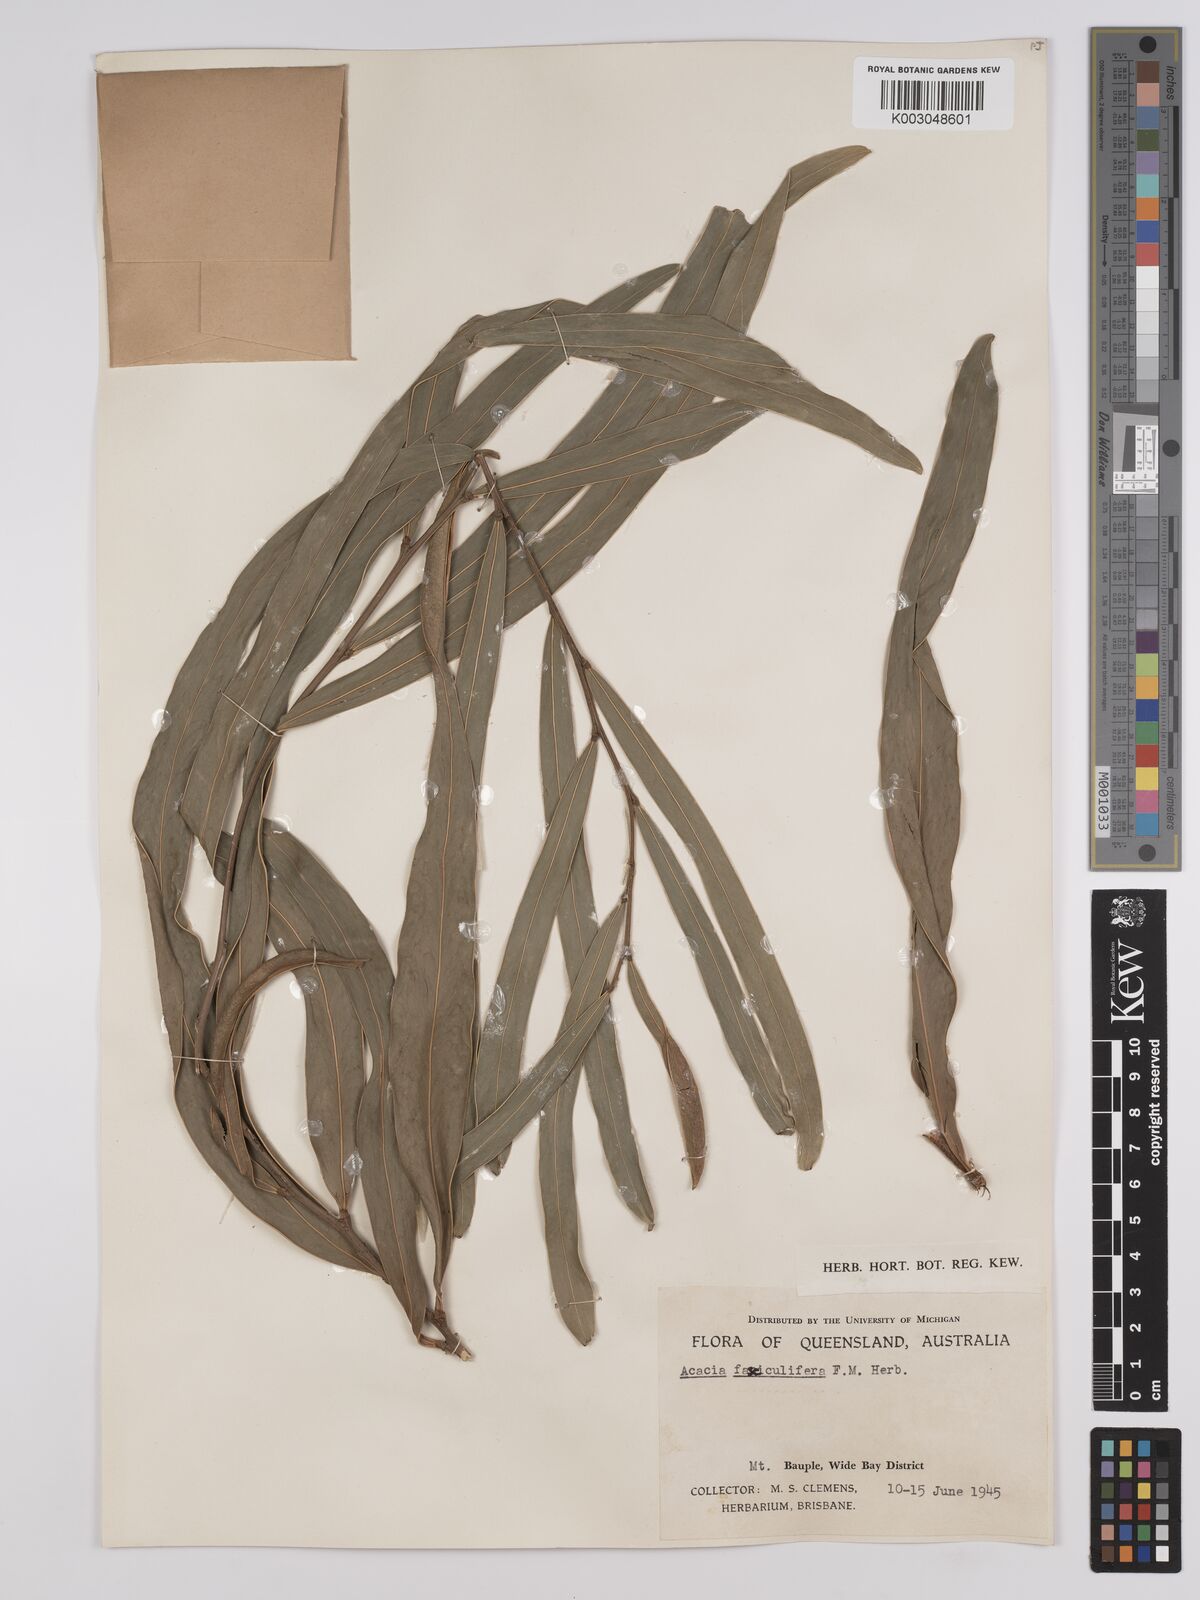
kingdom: Plantae
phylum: Tracheophyta
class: Magnoliopsida
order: Fabales
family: Fabaceae
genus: Acacia
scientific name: Acacia fasciculifera
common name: Scalybark
